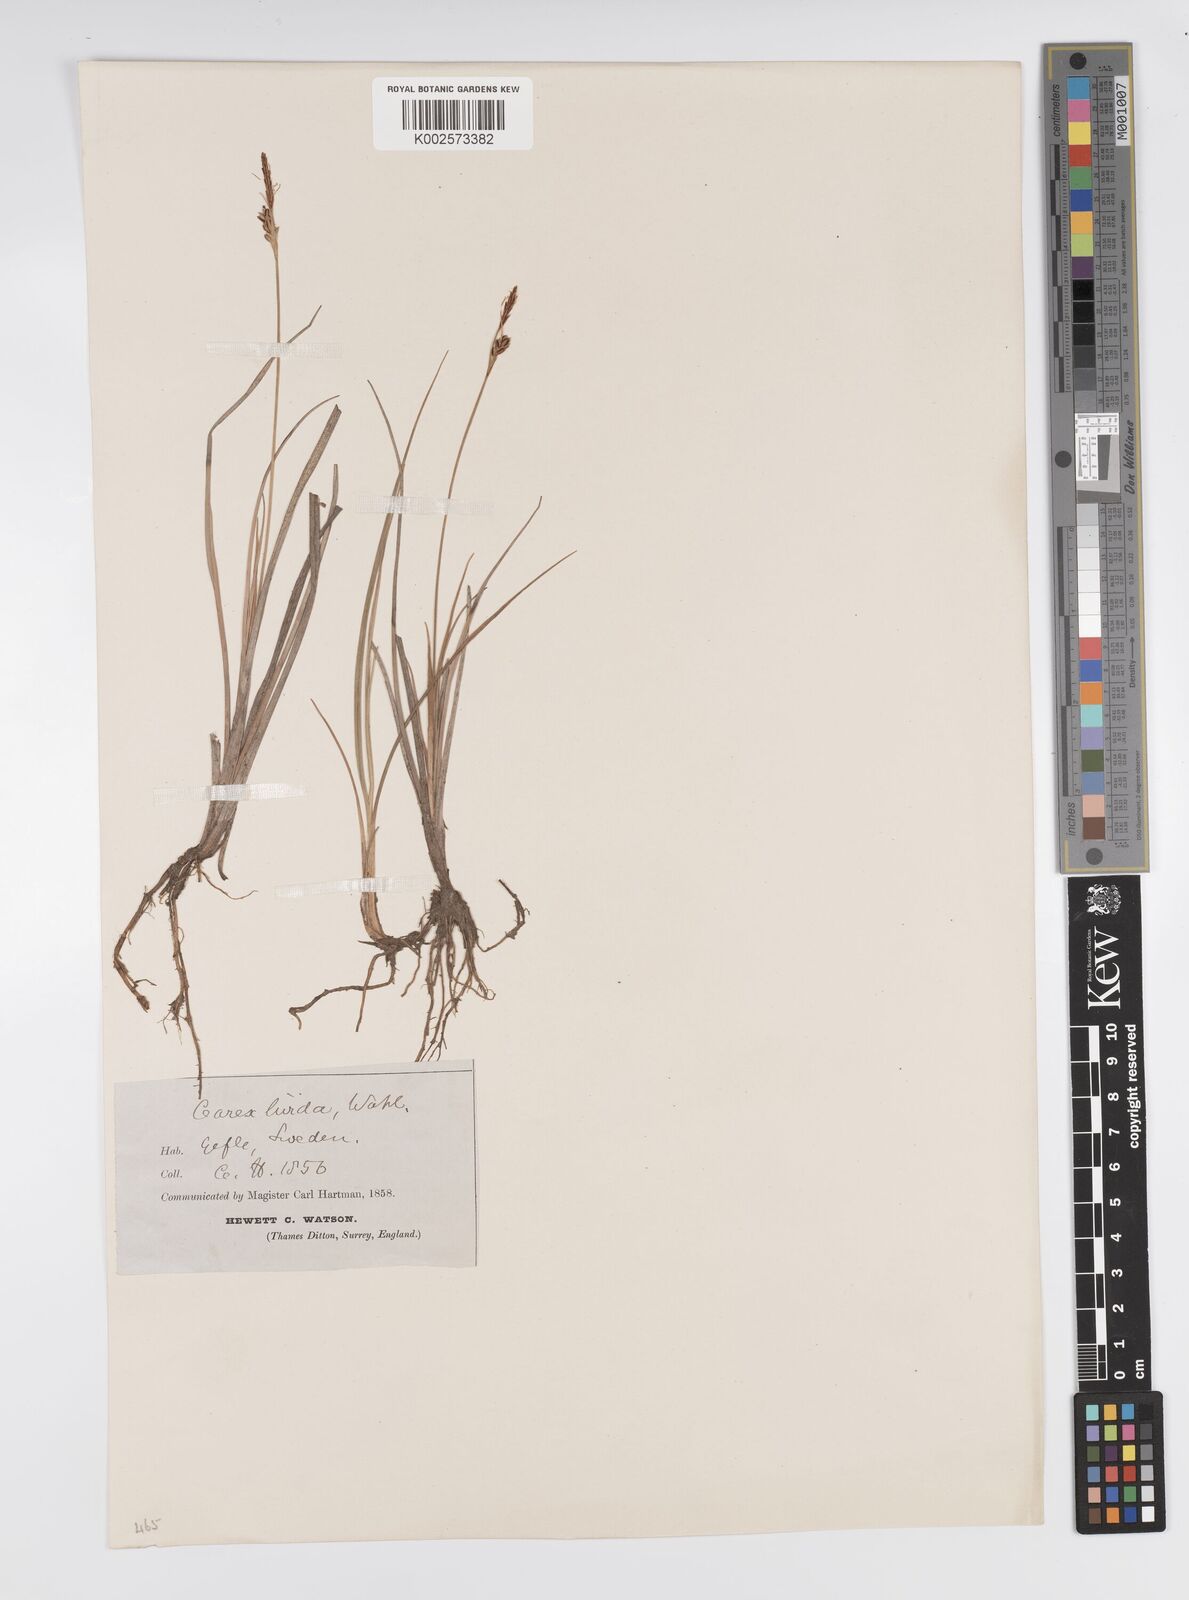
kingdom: Plantae
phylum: Tracheophyta
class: Liliopsida
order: Poales
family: Cyperaceae
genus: Carex
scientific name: Carex livida
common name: Livid sedge
